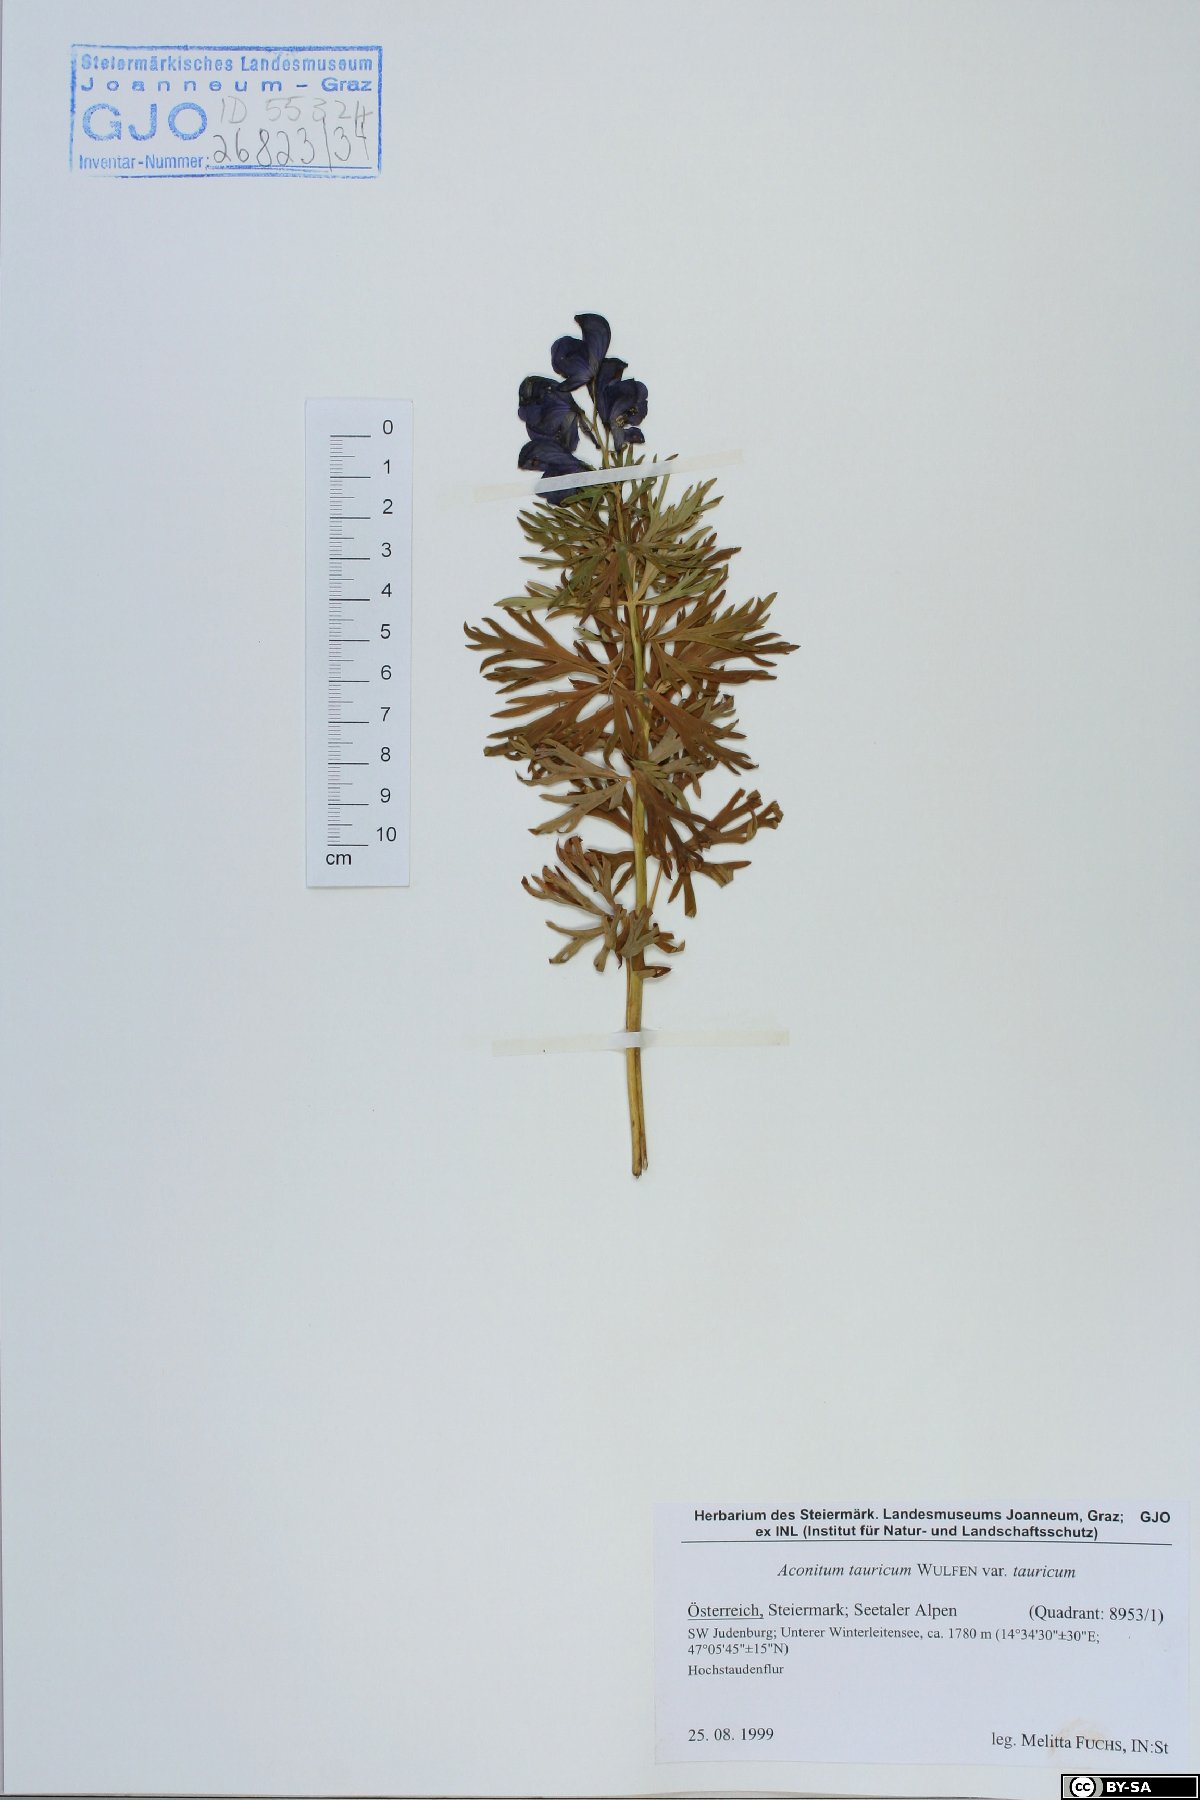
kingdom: Plantae
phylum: Tracheophyta
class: Magnoliopsida
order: Ranunculales
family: Ranunculaceae
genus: Aconitum
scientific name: Aconitum tauricum
